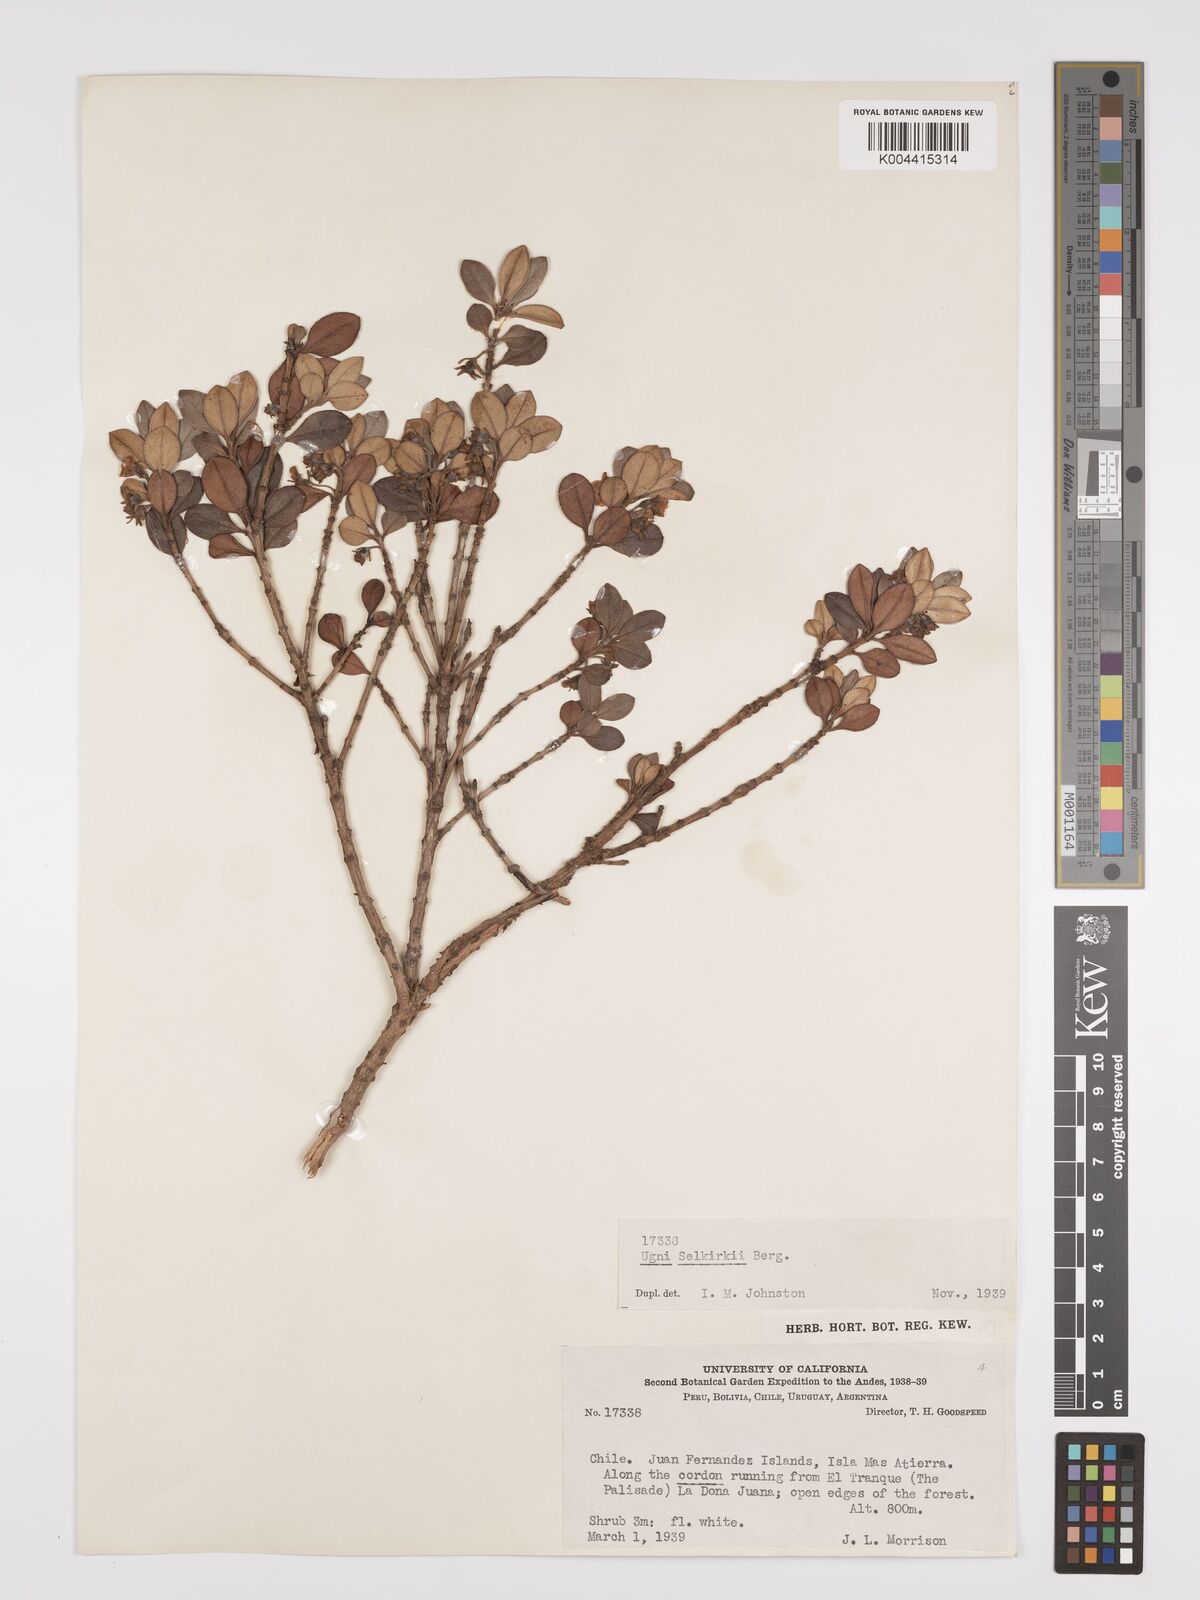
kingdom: Plantae
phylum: Tracheophyta
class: Magnoliopsida
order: Myrtales
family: Myrtaceae
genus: Ugni
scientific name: Ugni selkirkii
